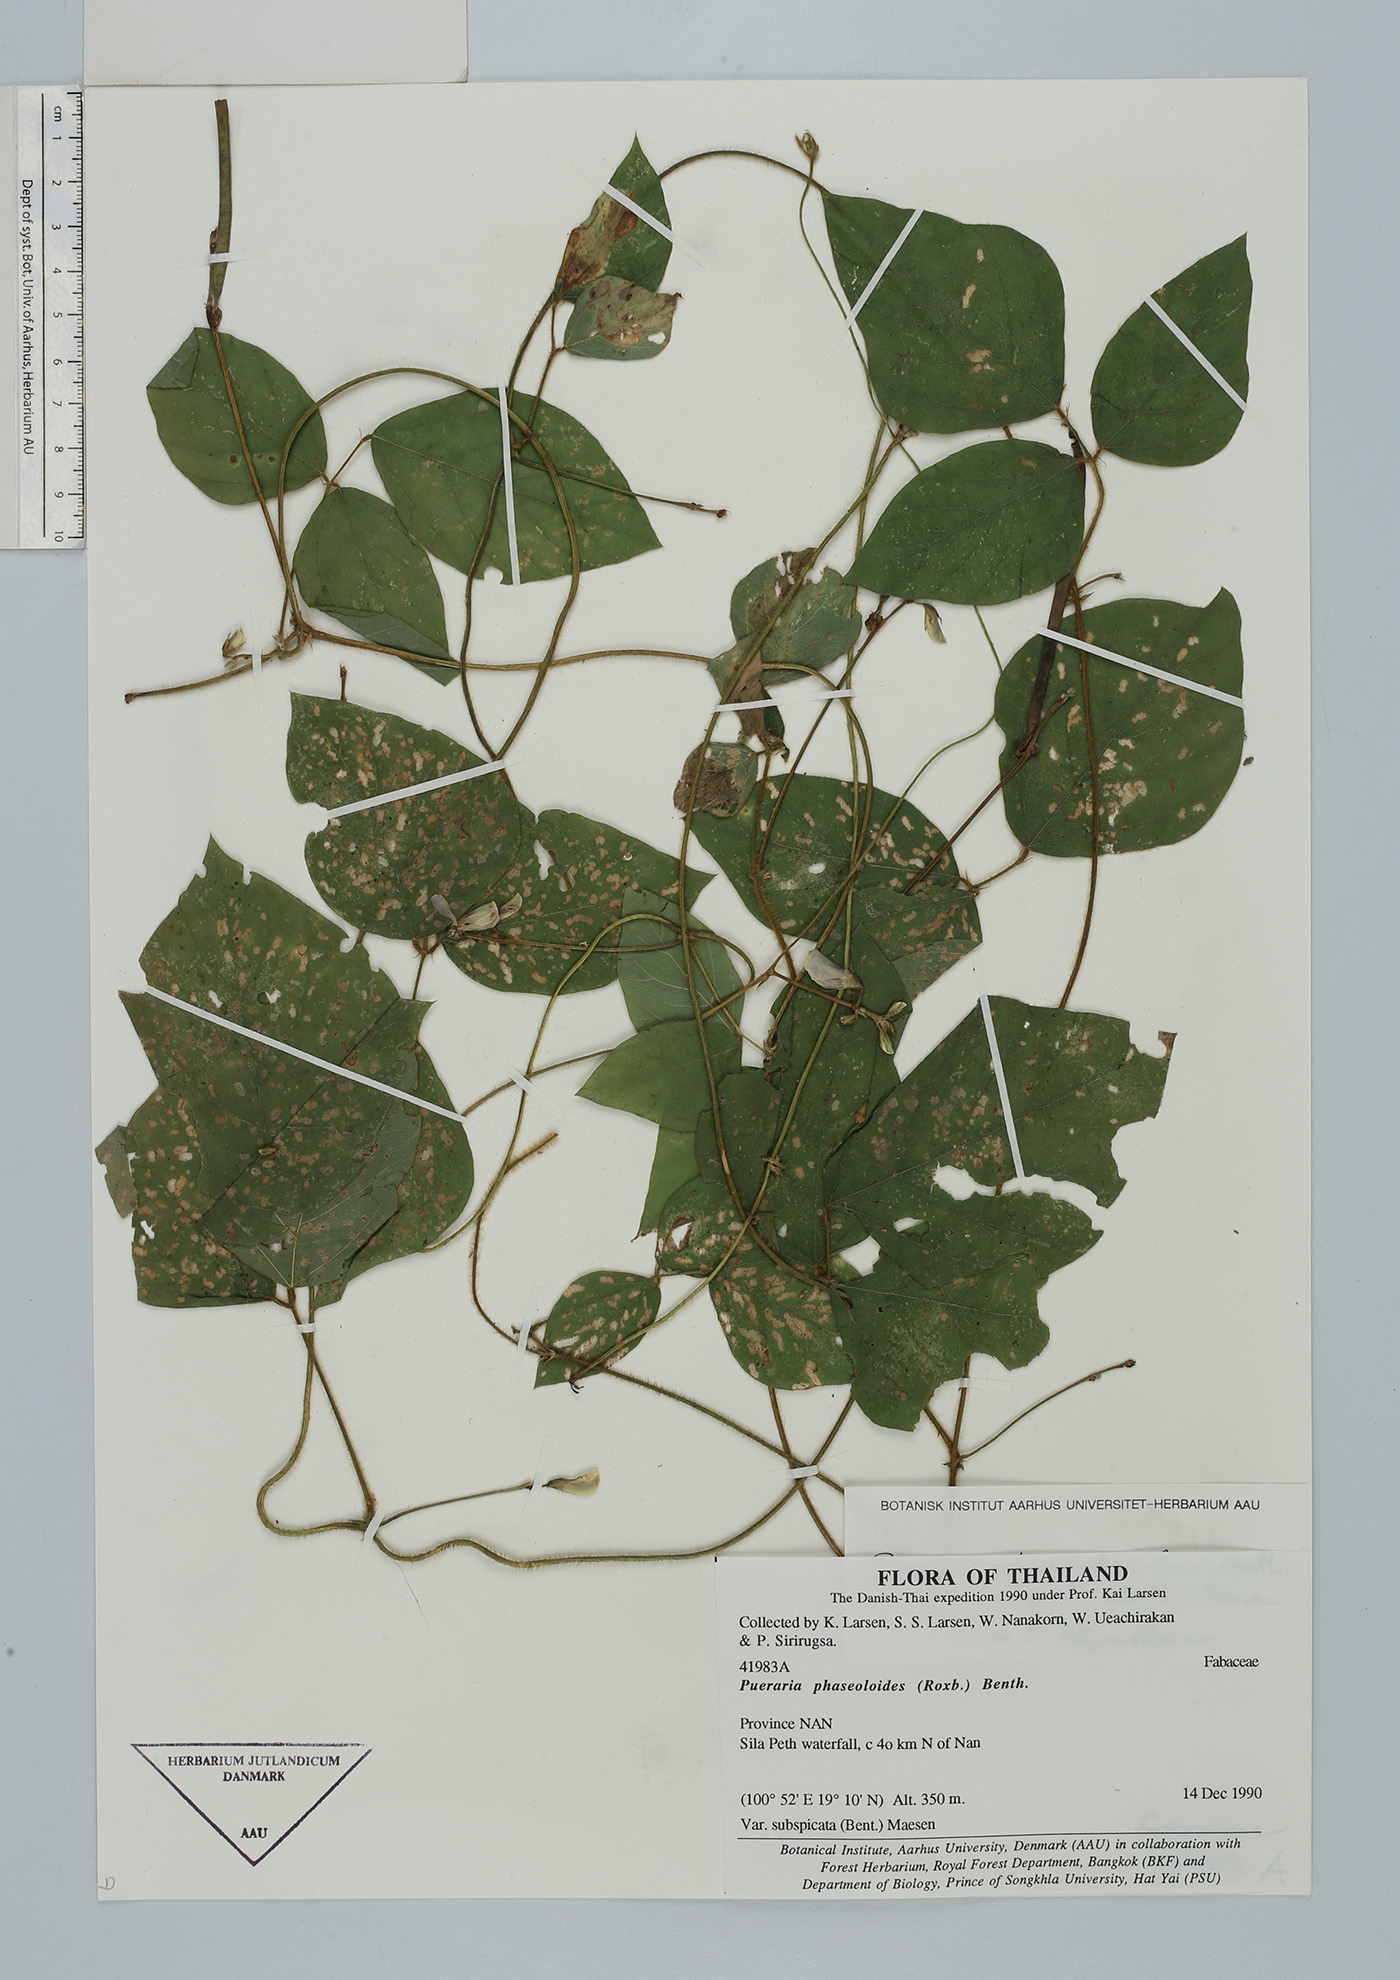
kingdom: Plantae
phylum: Tracheophyta
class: Magnoliopsida
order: Fabales
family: Fabaceae
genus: Neustanthus
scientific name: Neustanthus phaseoloides
